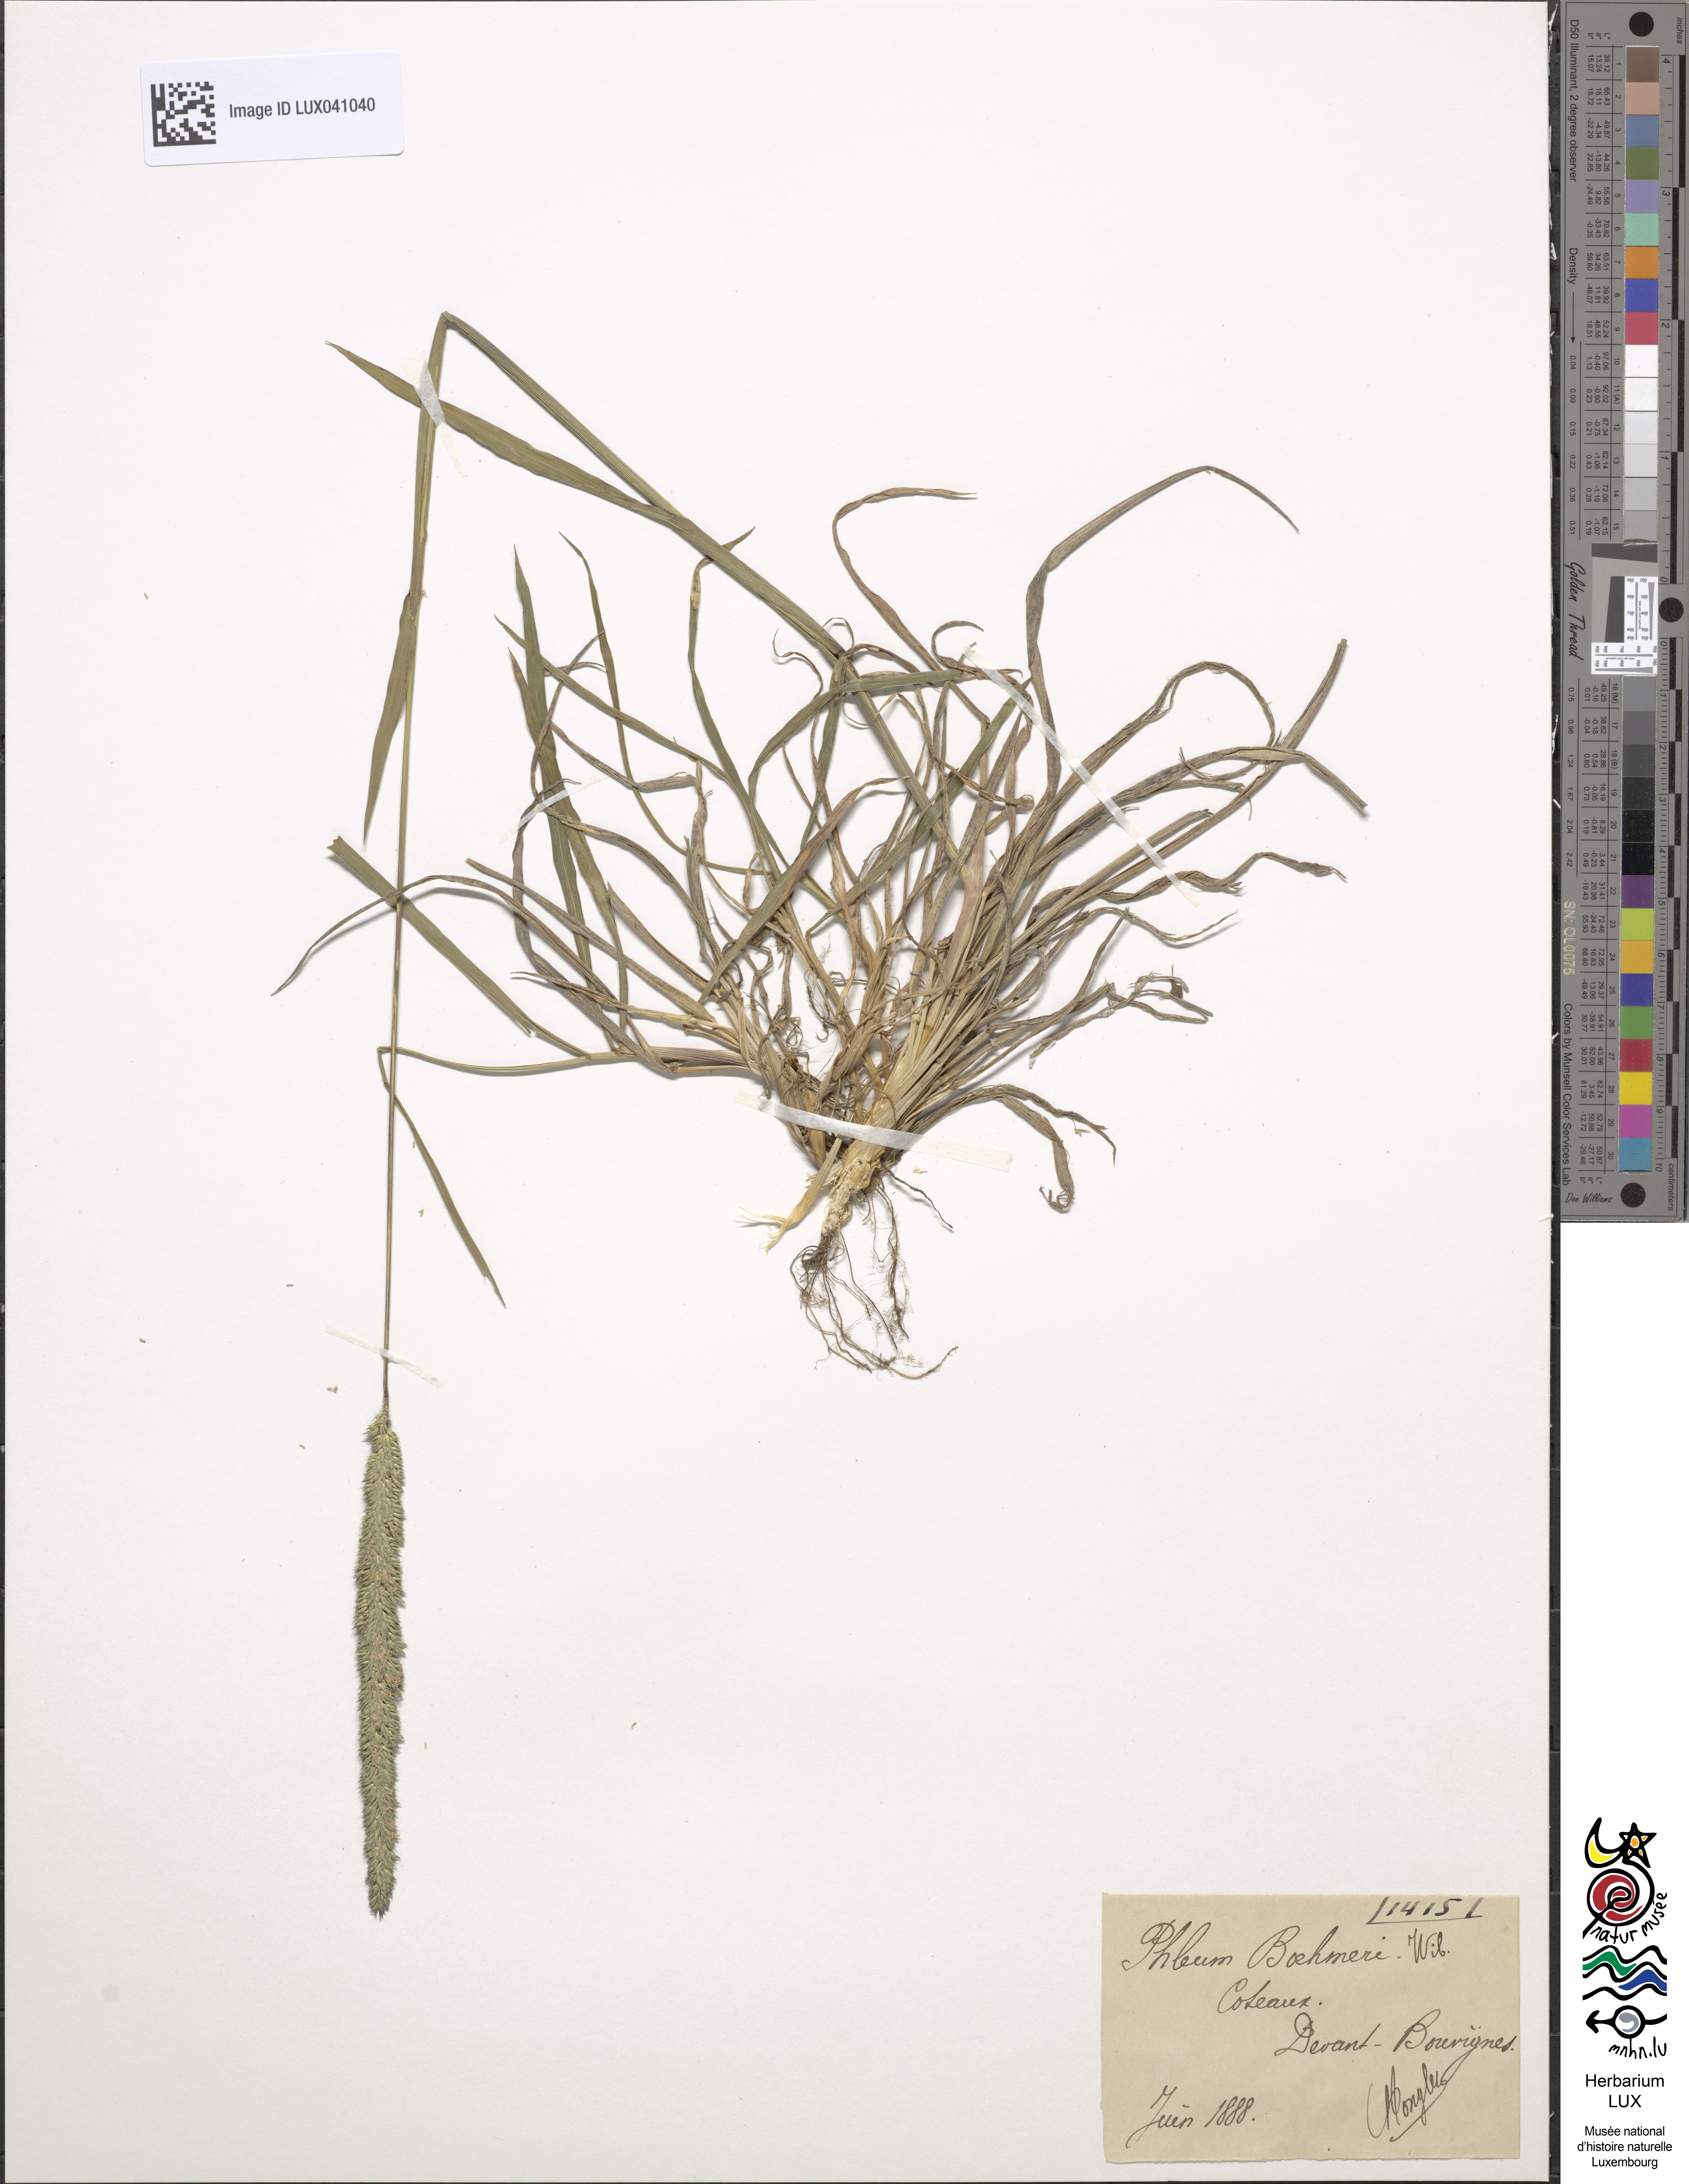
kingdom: Plantae
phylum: Tracheophyta
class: Liliopsida
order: Poales
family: Poaceae
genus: Phleum
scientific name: Phleum phleoides
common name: Purple-stem cat's-tail
